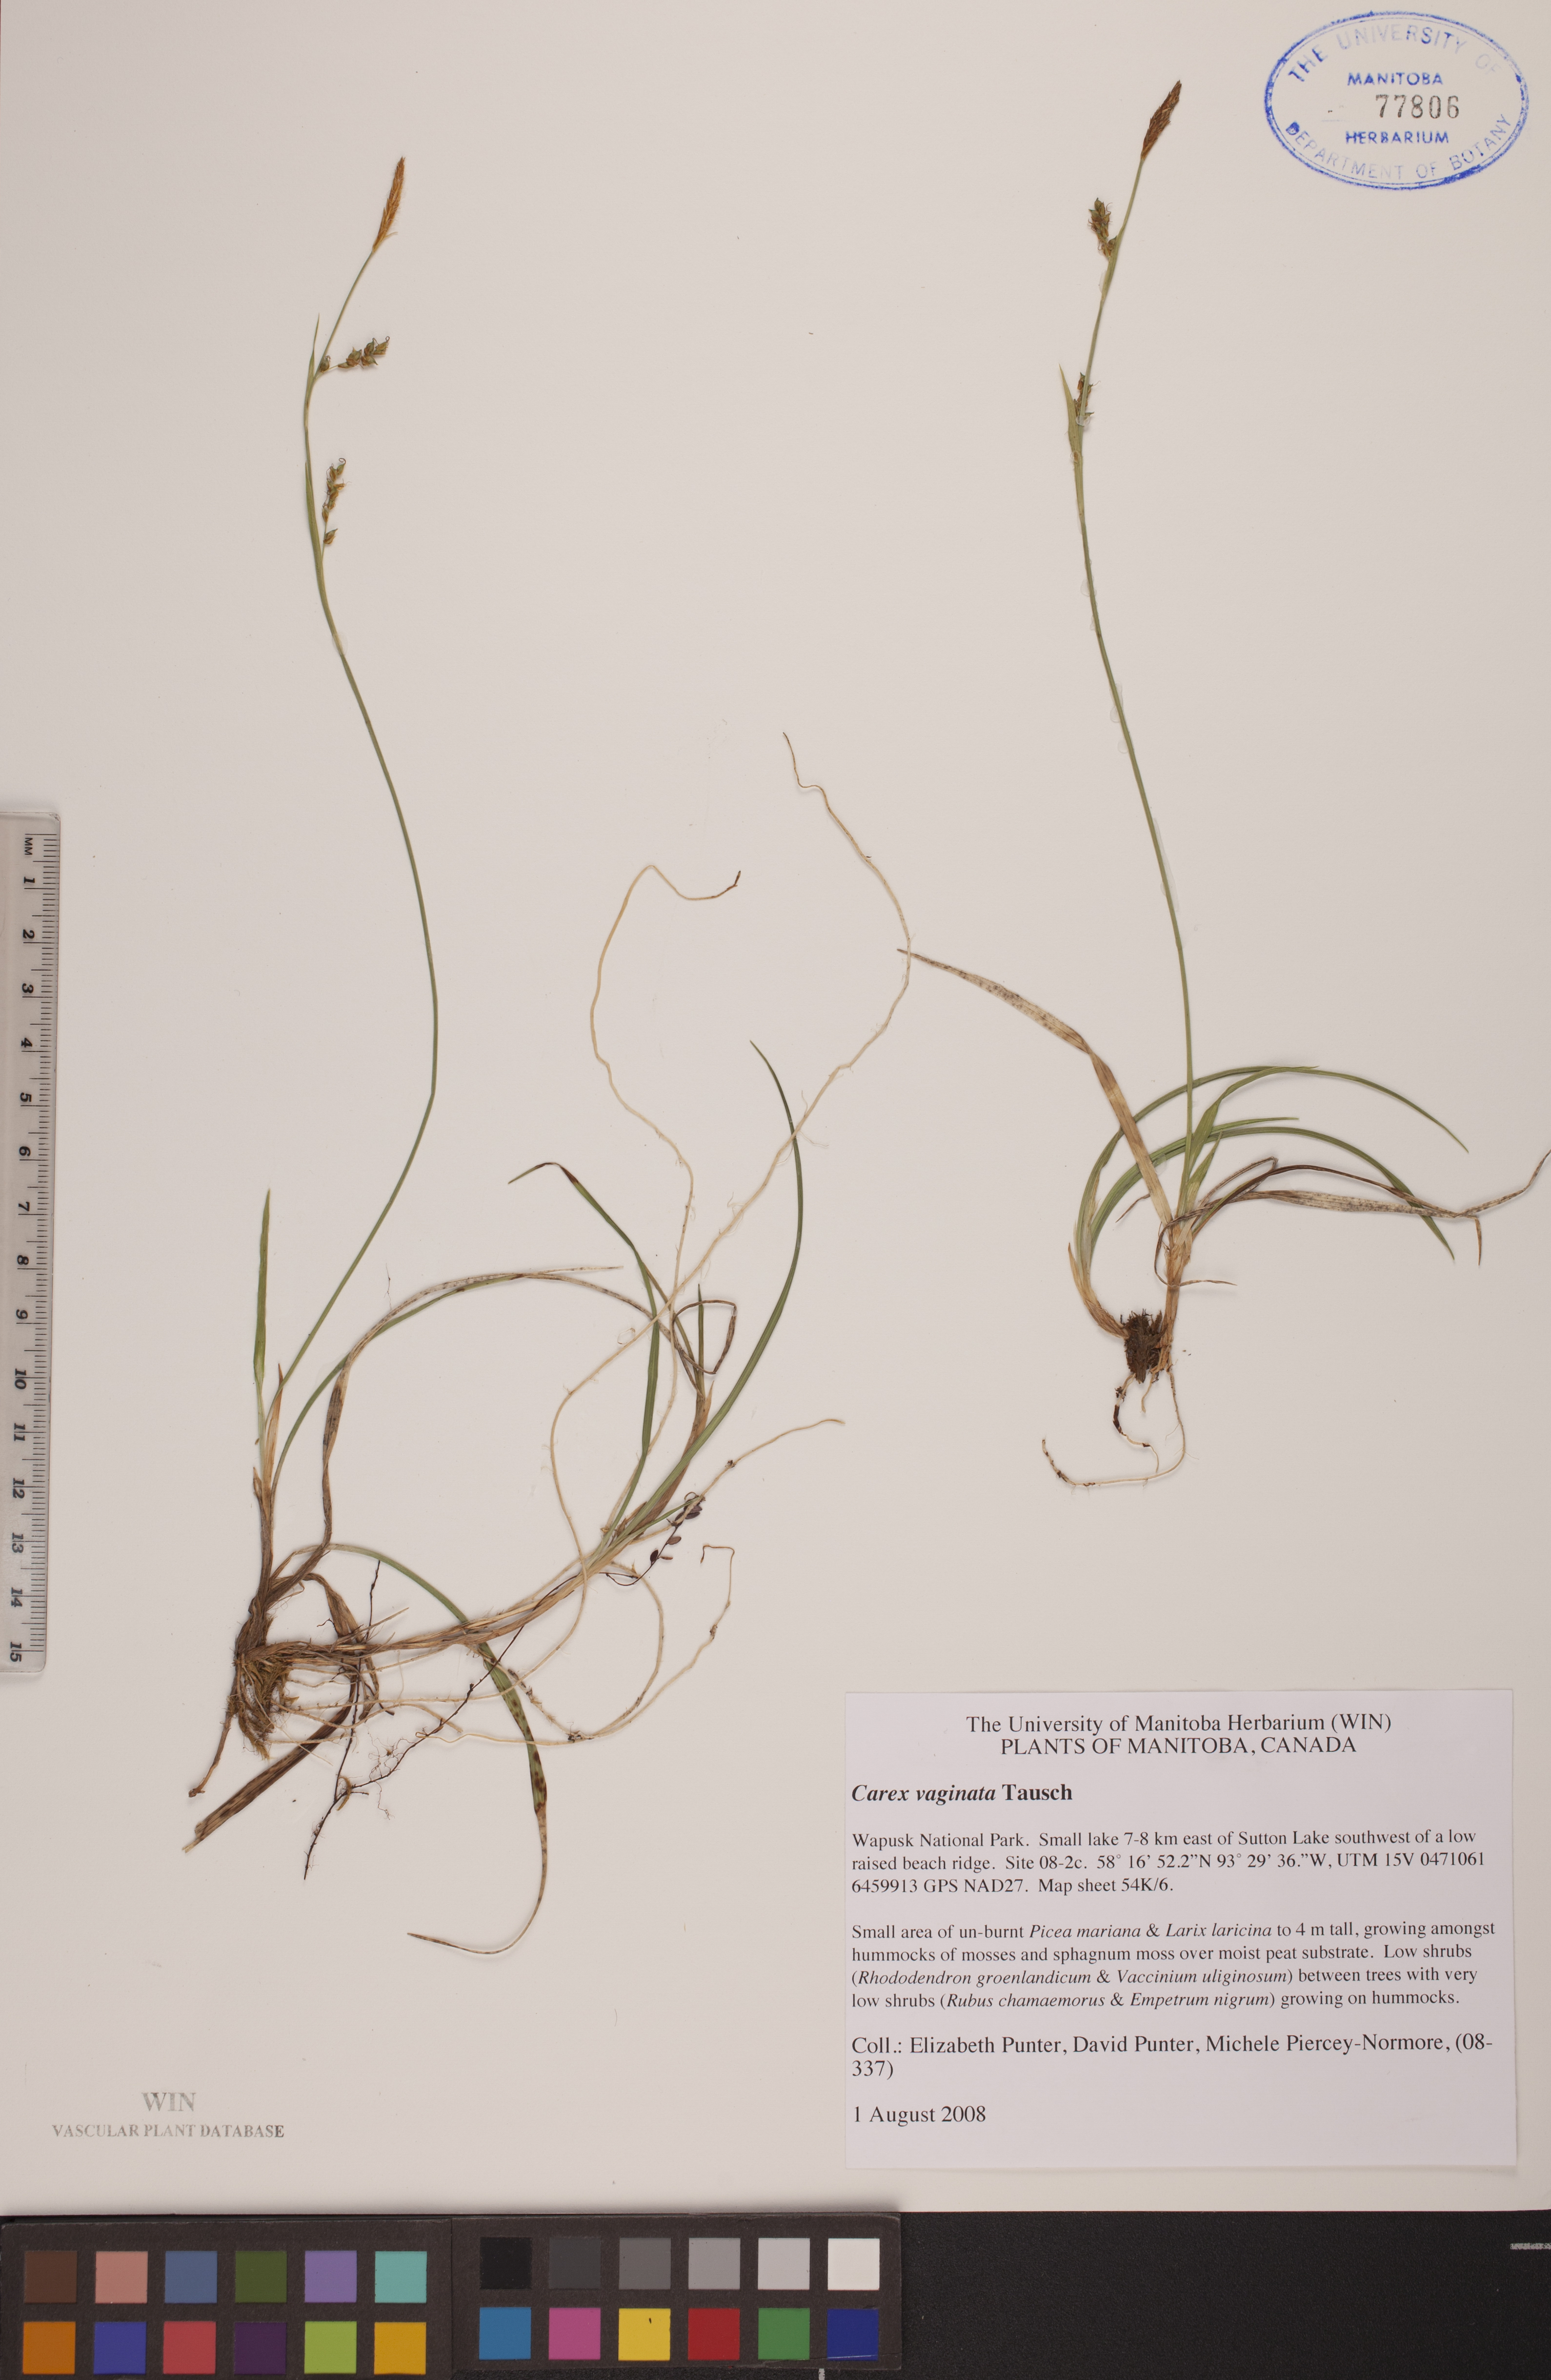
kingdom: Plantae
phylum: Tracheophyta
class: Liliopsida
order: Poales
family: Cyperaceae
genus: Carex
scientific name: Carex vaginata
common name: Sheathed sedge
